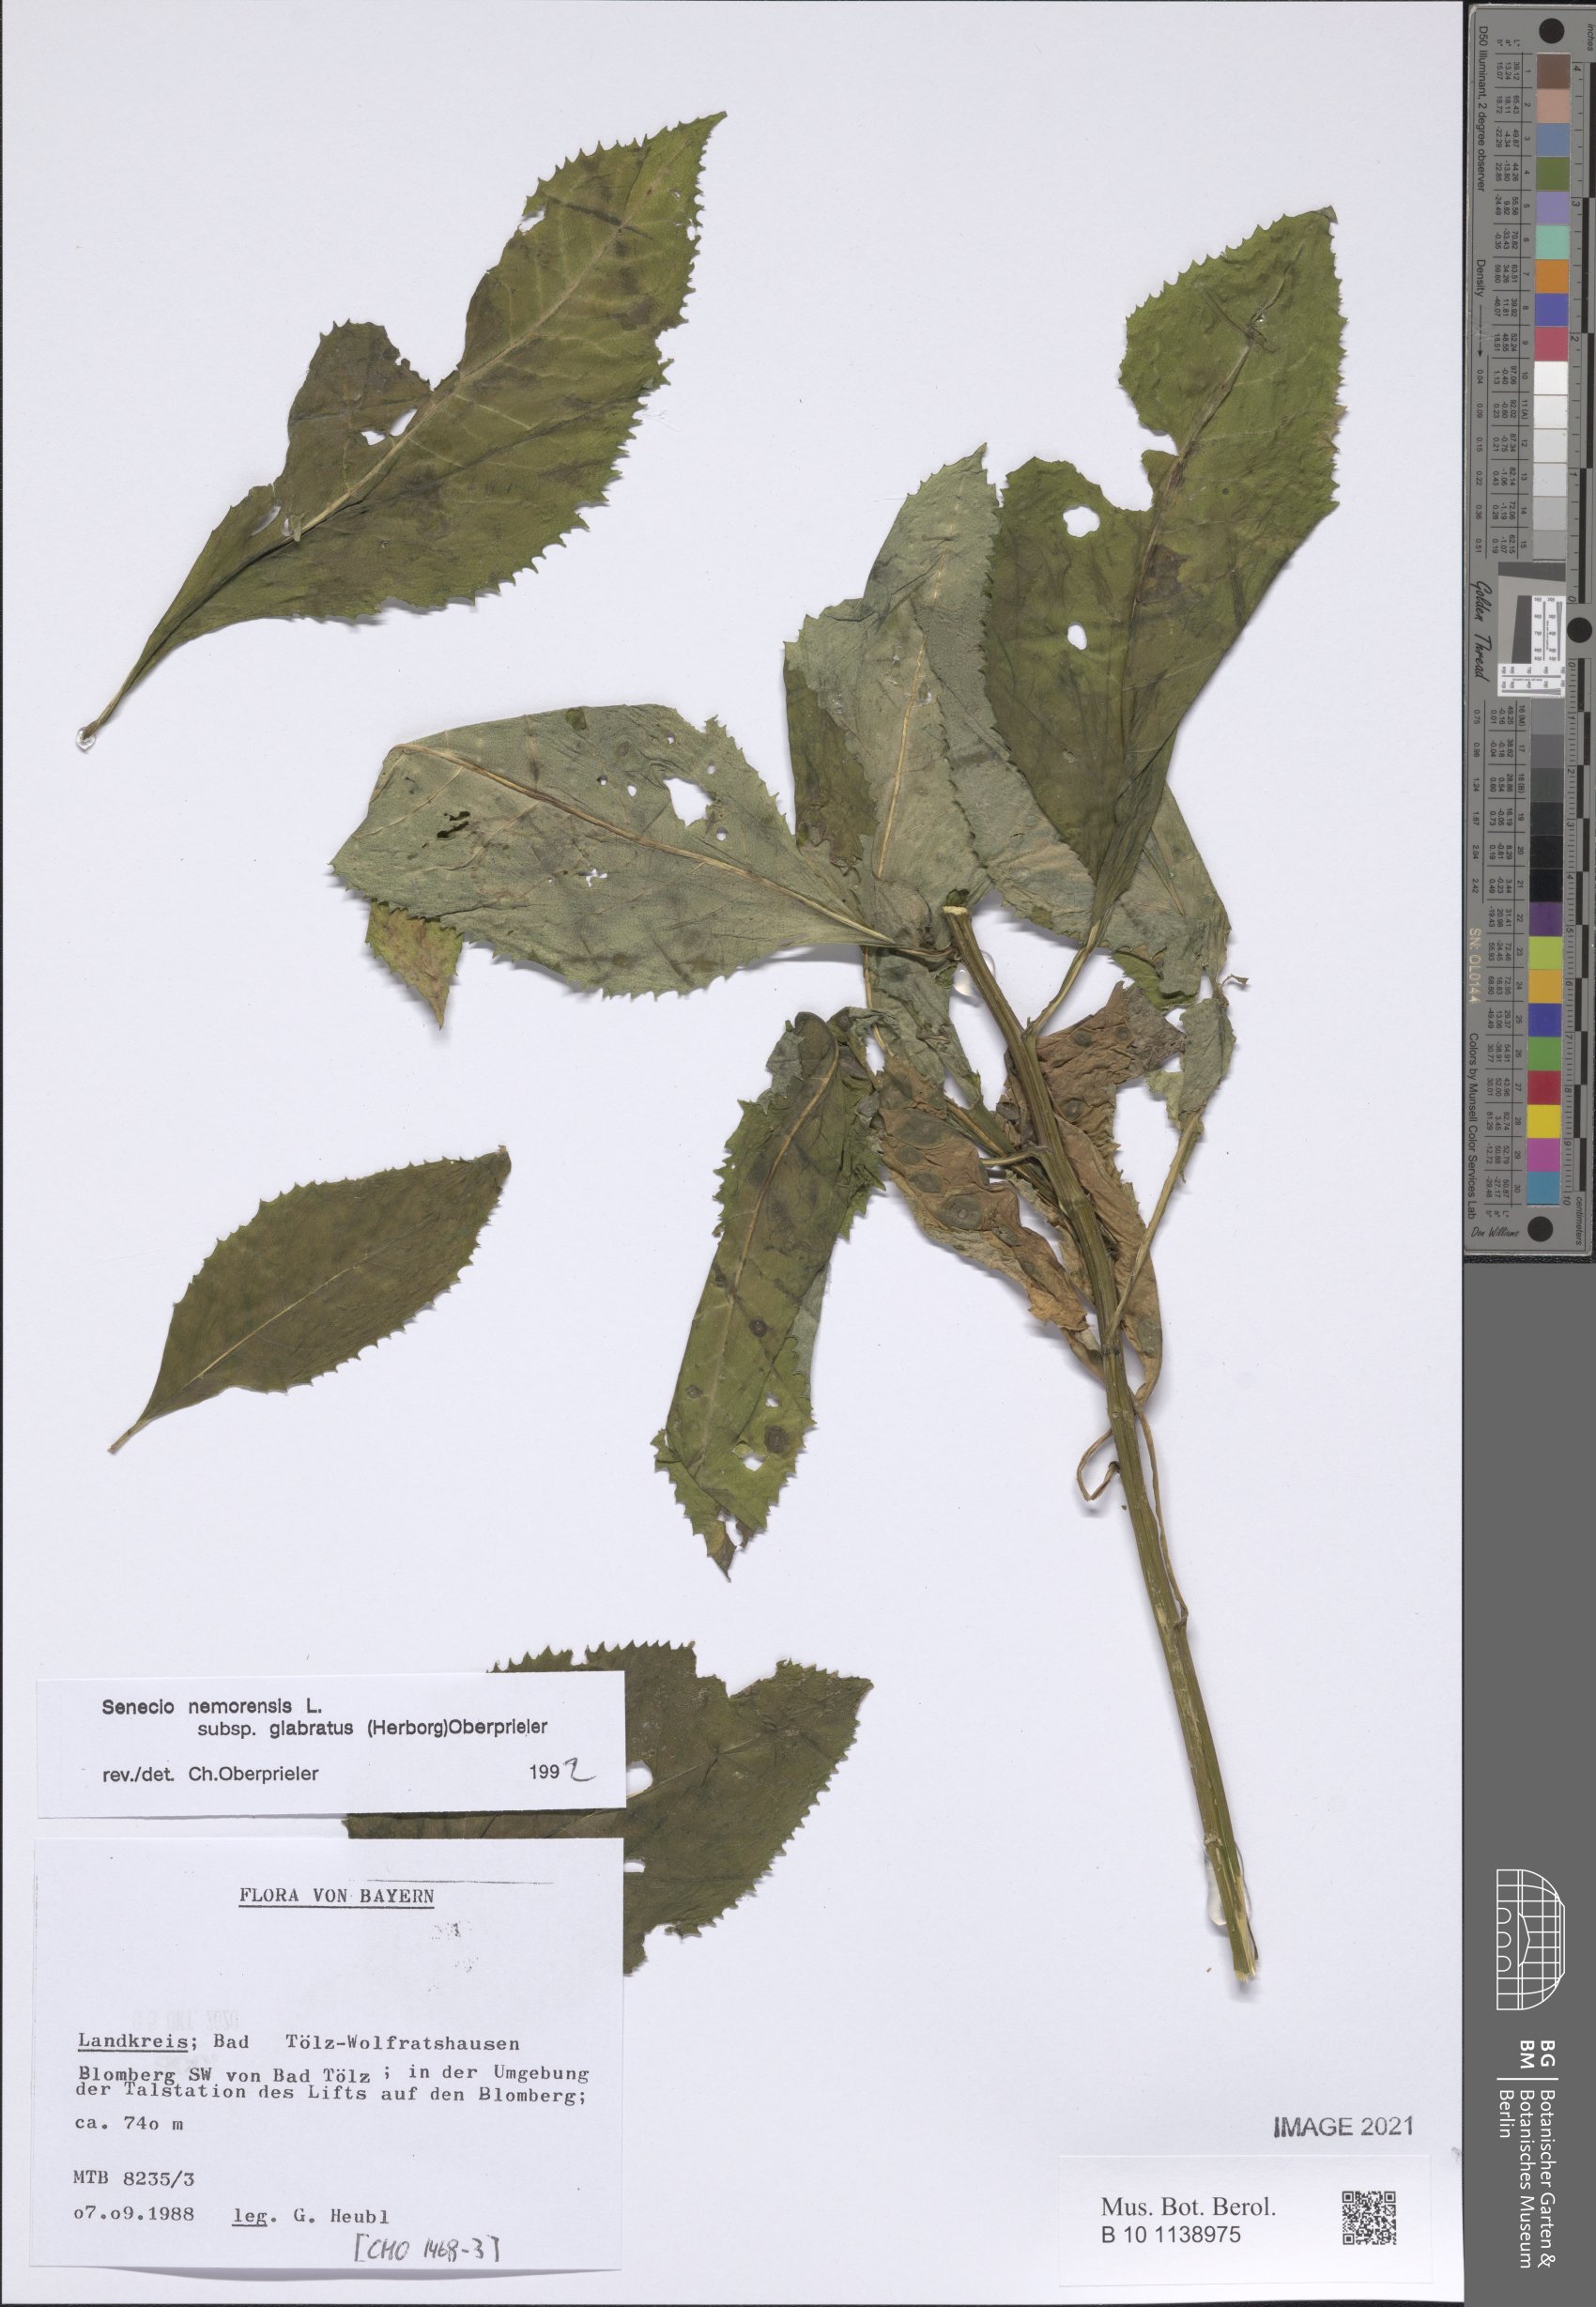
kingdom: Plantae
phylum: Tracheophyta
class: Magnoliopsida
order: Asterales
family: Asteraceae
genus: Senecio
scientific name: Senecio germanicus
